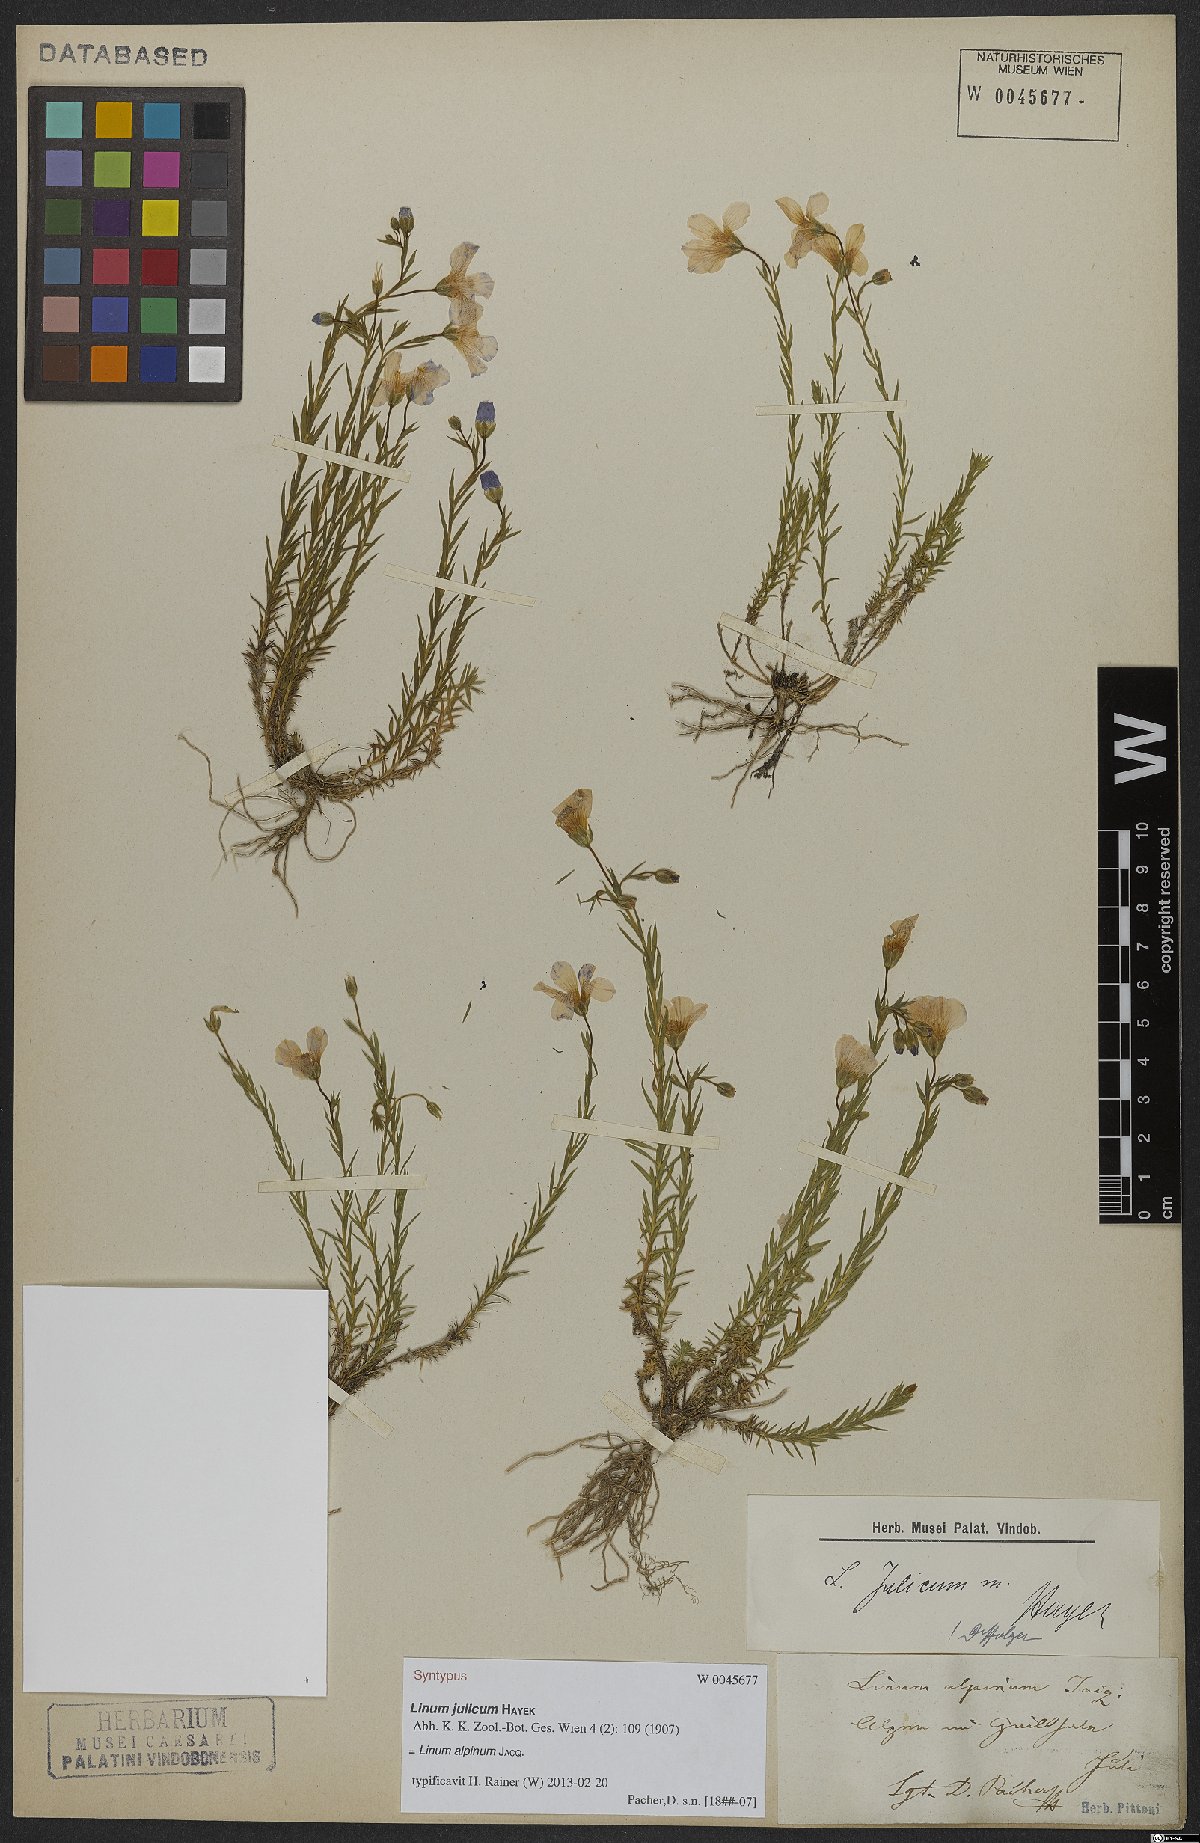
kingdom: Plantae
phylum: Tracheophyta
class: Magnoliopsida
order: Malpighiales
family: Linaceae
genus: Linum
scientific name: Linum alpinum
